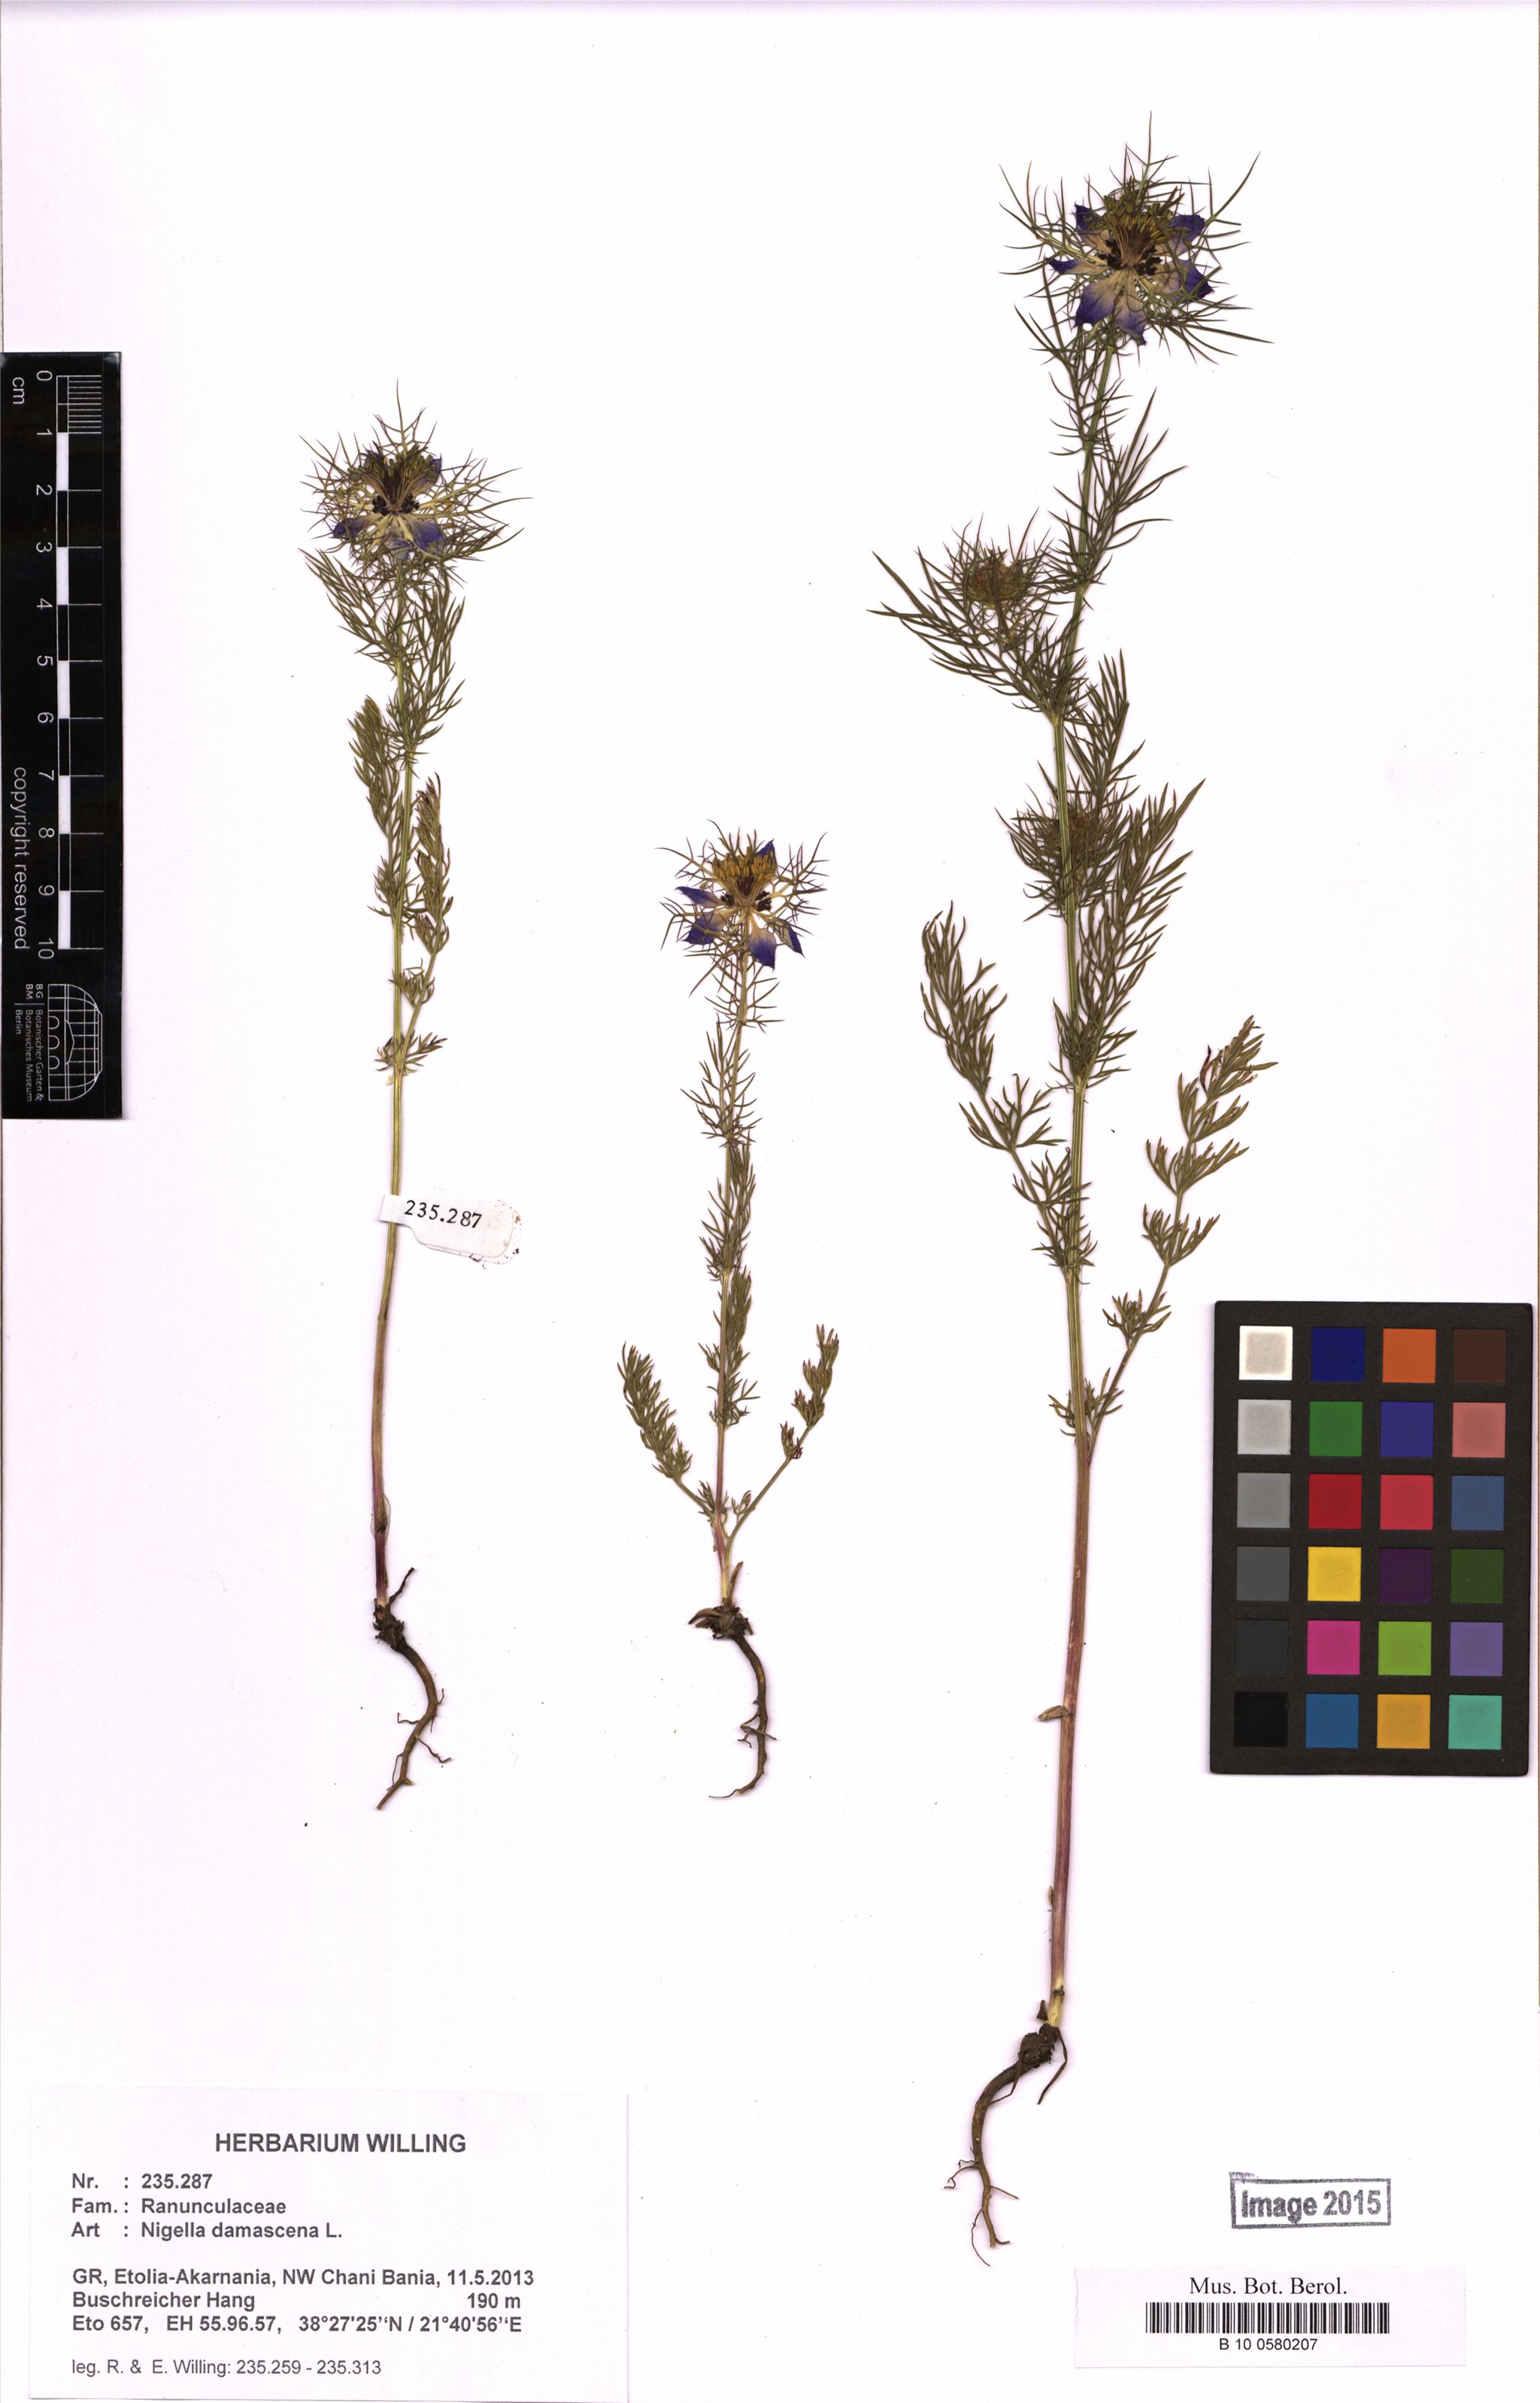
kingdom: Plantae
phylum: Tracheophyta
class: Magnoliopsida
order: Ranunculales
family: Ranunculaceae
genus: Nigella
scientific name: Nigella damascena
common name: Love-in-a-mist
